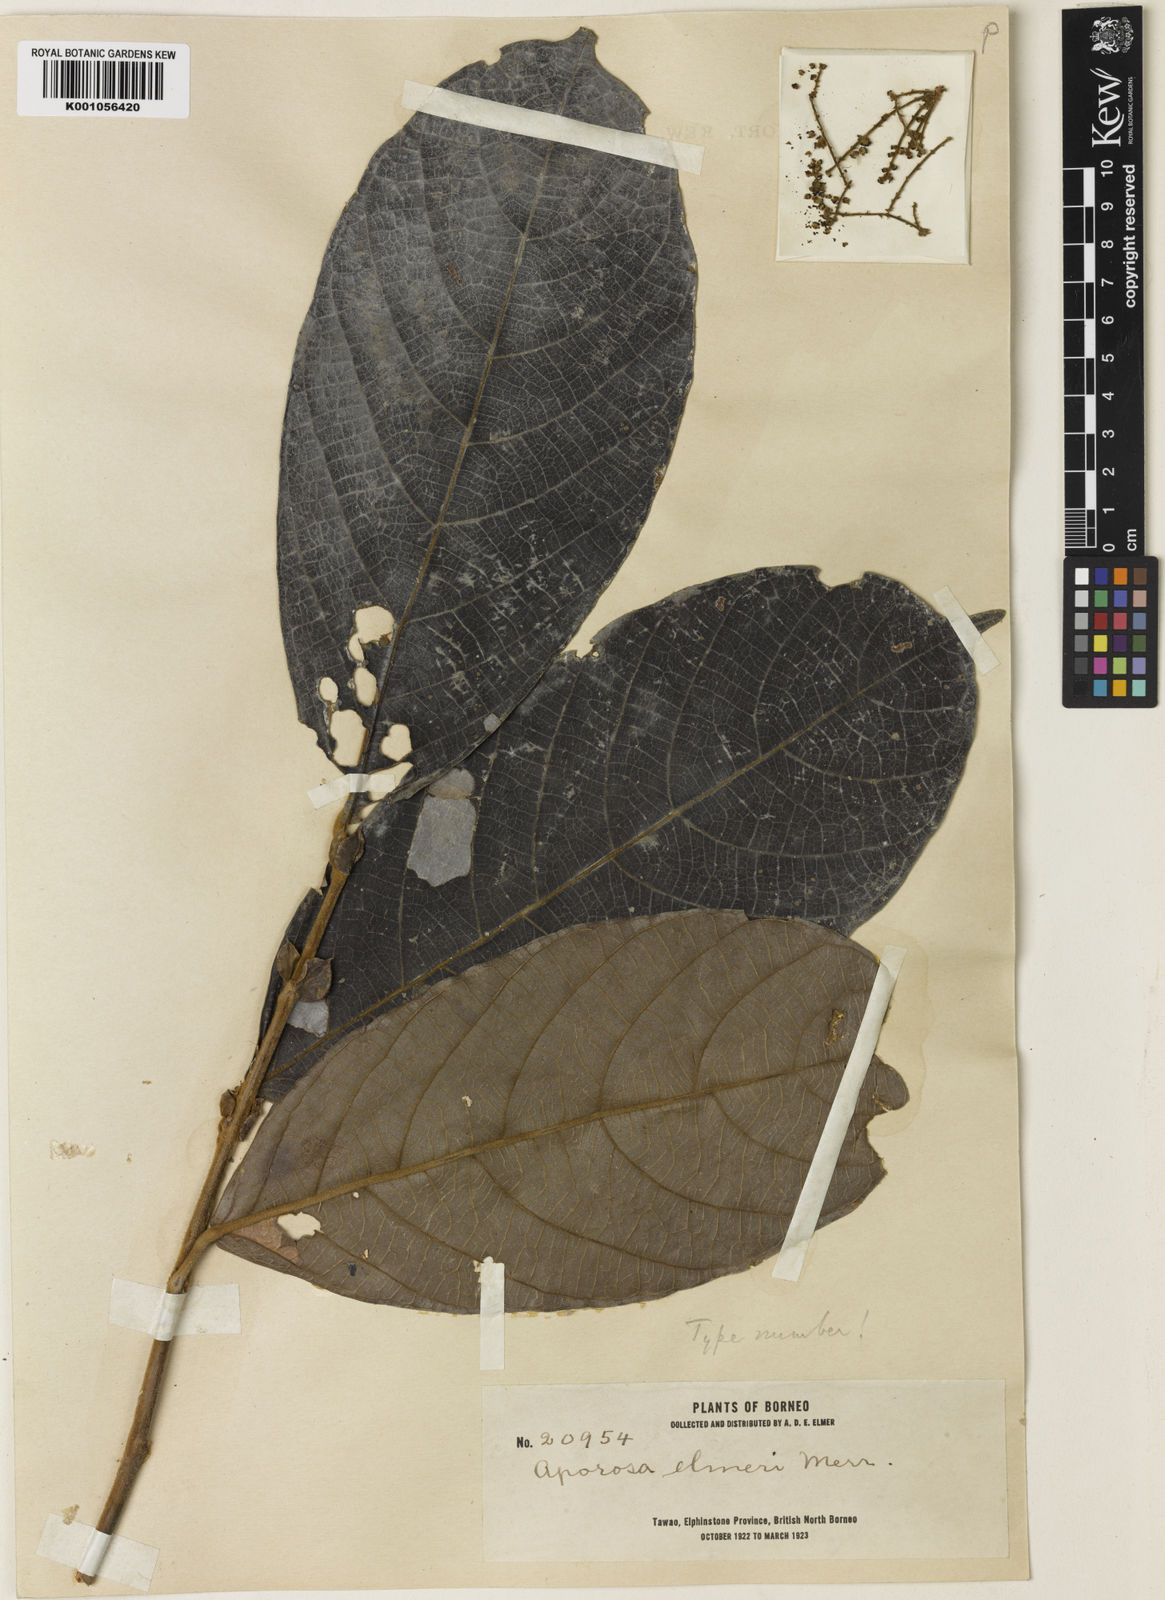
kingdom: Plantae
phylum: Tracheophyta
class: Magnoliopsida
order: Malpighiales
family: Phyllanthaceae
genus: Aporosa
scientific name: Aporosa elmeri
